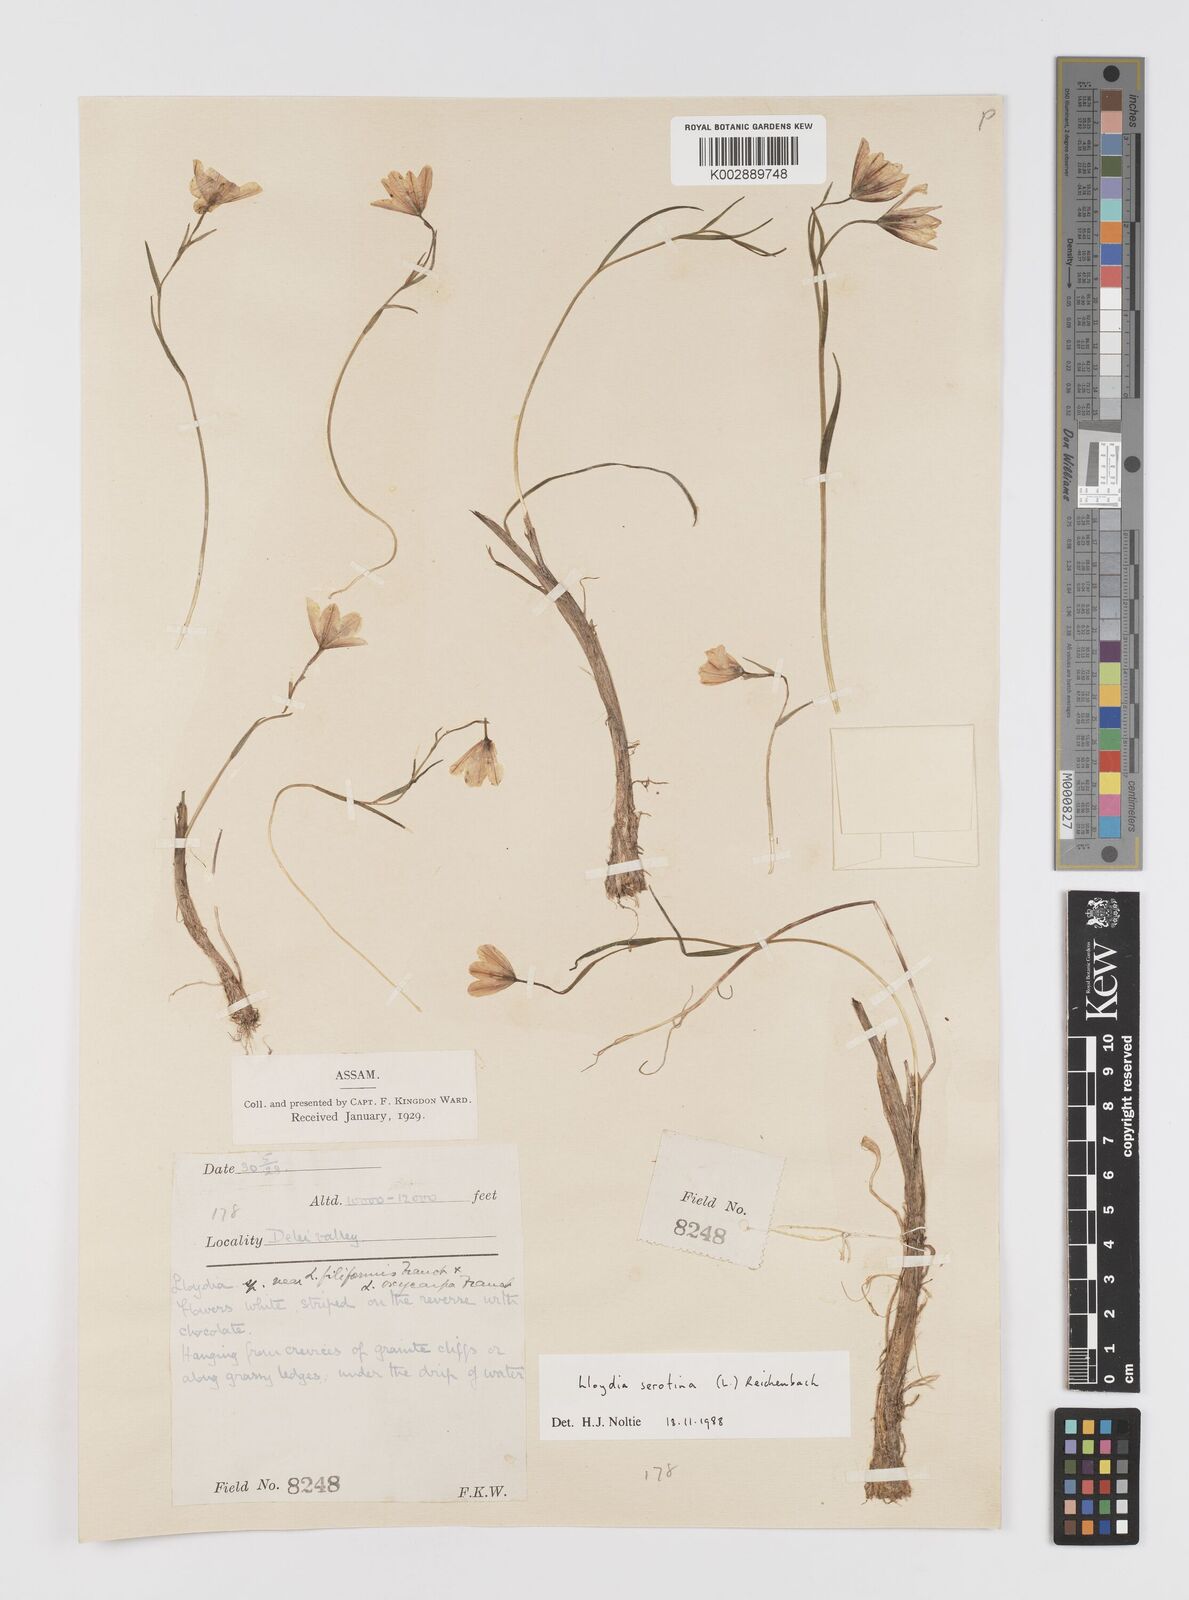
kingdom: Plantae
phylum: Tracheophyta
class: Liliopsida
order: Liliales
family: Liliaceae
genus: Gagea
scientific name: Gagea serotina
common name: Snowdon lily
